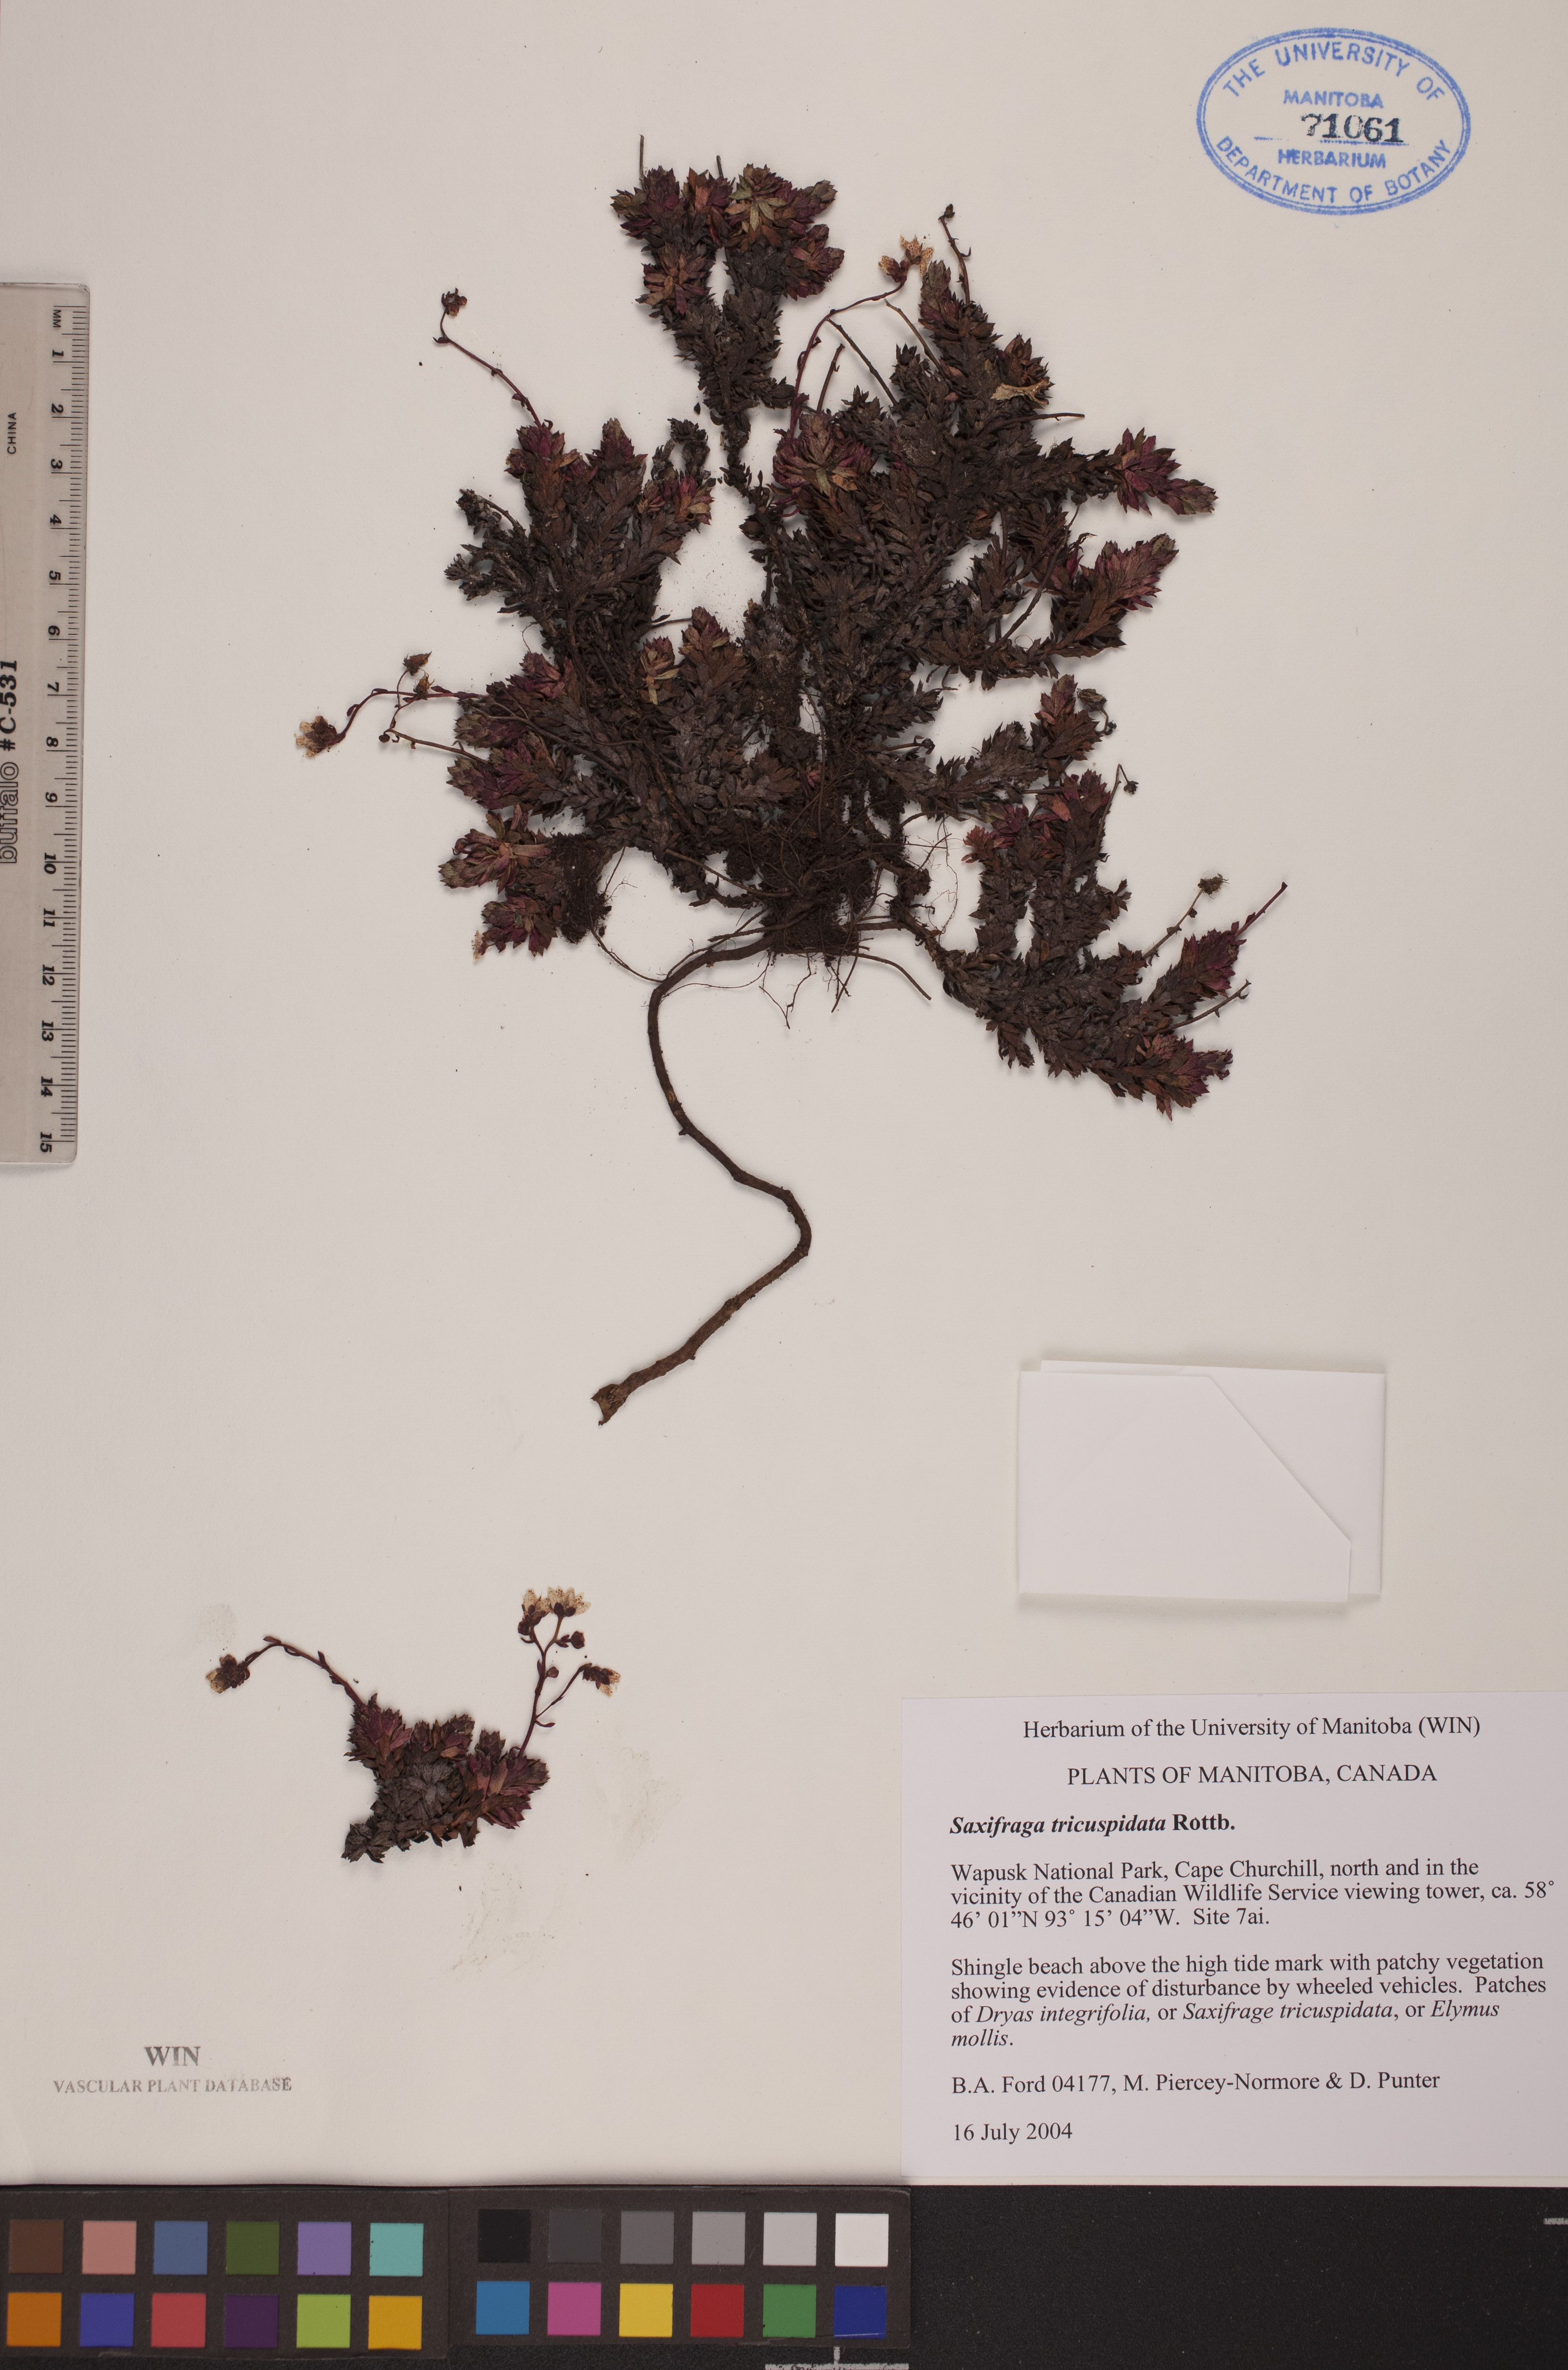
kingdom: Plantae
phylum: Tracheophyta
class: Magnoliopsida
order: Saxifragales
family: Saxifragaceae
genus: Saxifraga
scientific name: Saxifraga tricuspidata
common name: Prickly saxifrage
